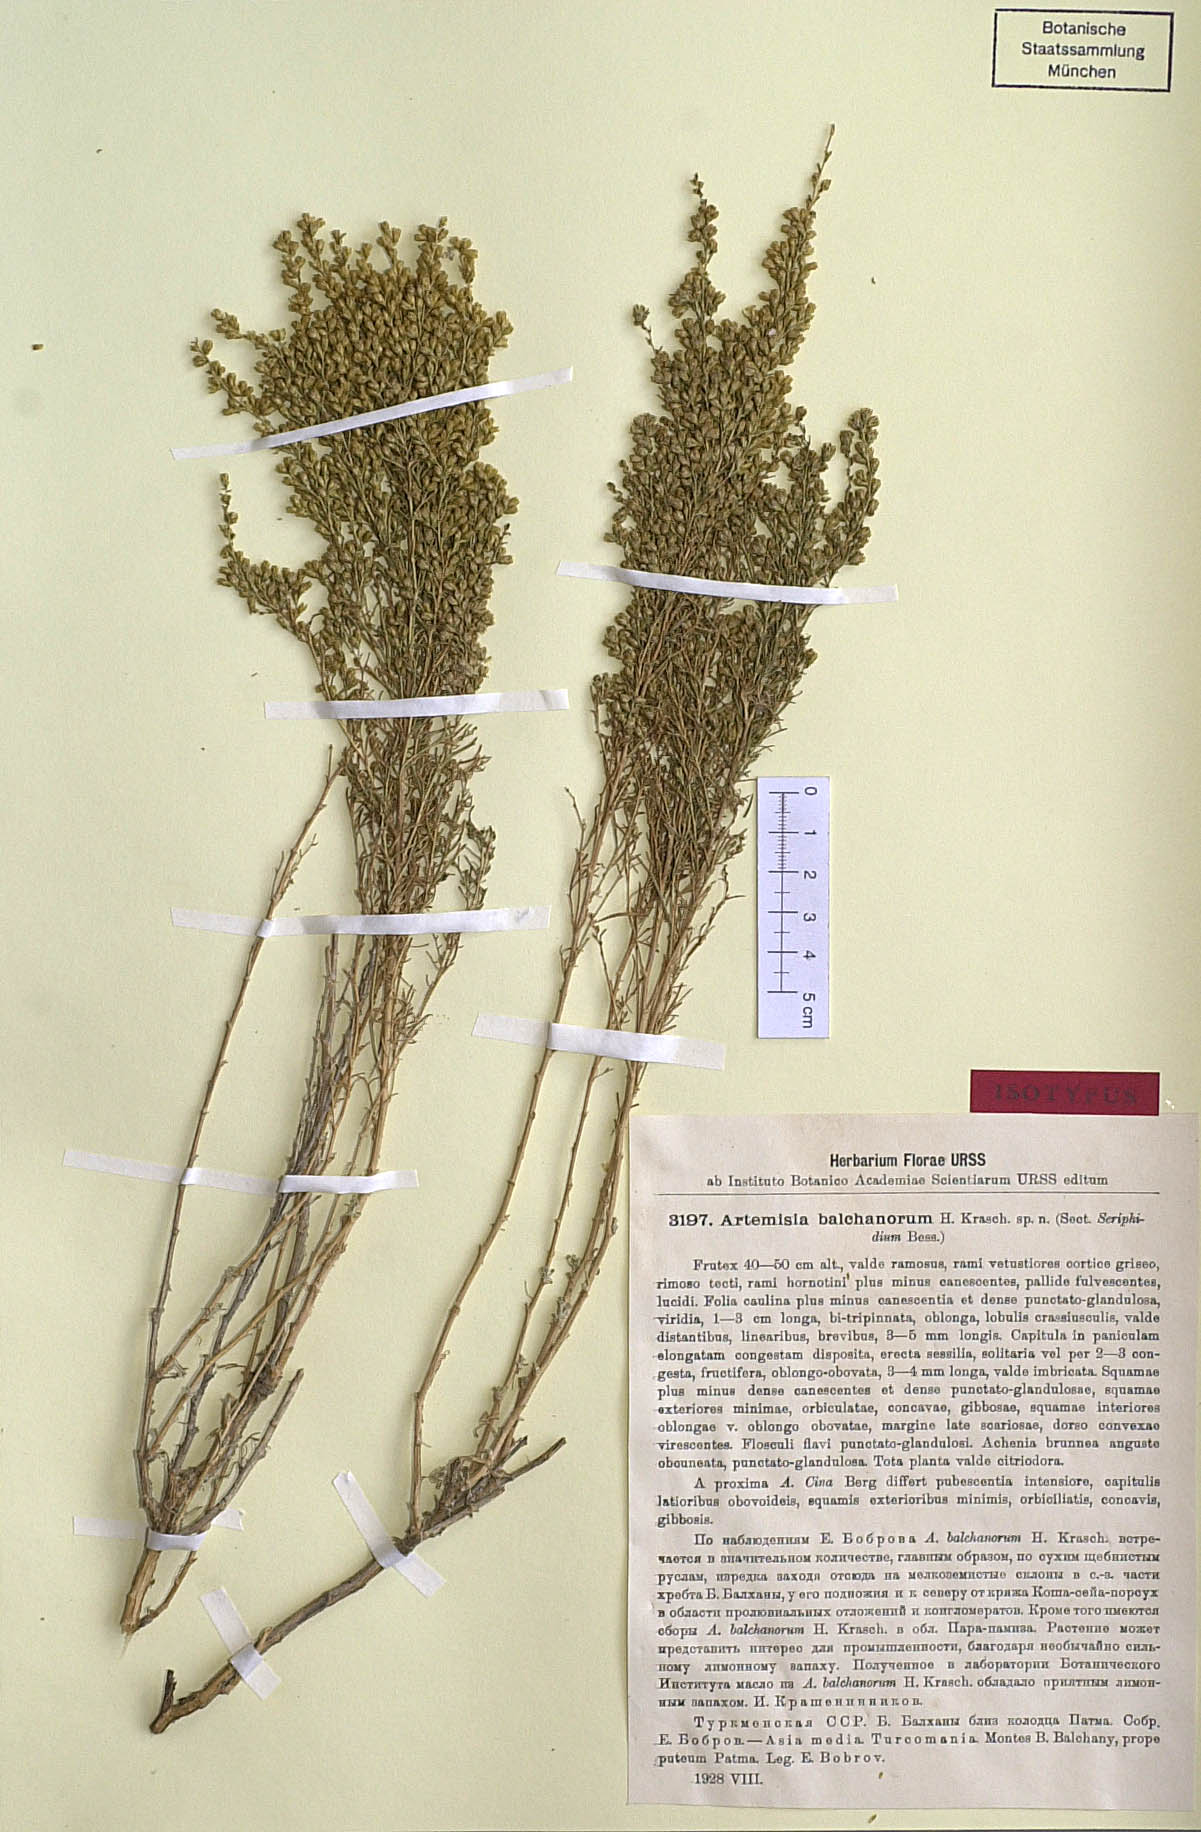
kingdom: Plantae
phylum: Tracheophyta
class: Magnoliopsida
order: Asterales
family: Asteraceae
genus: Artemisia
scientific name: Artemisia balchanorum
